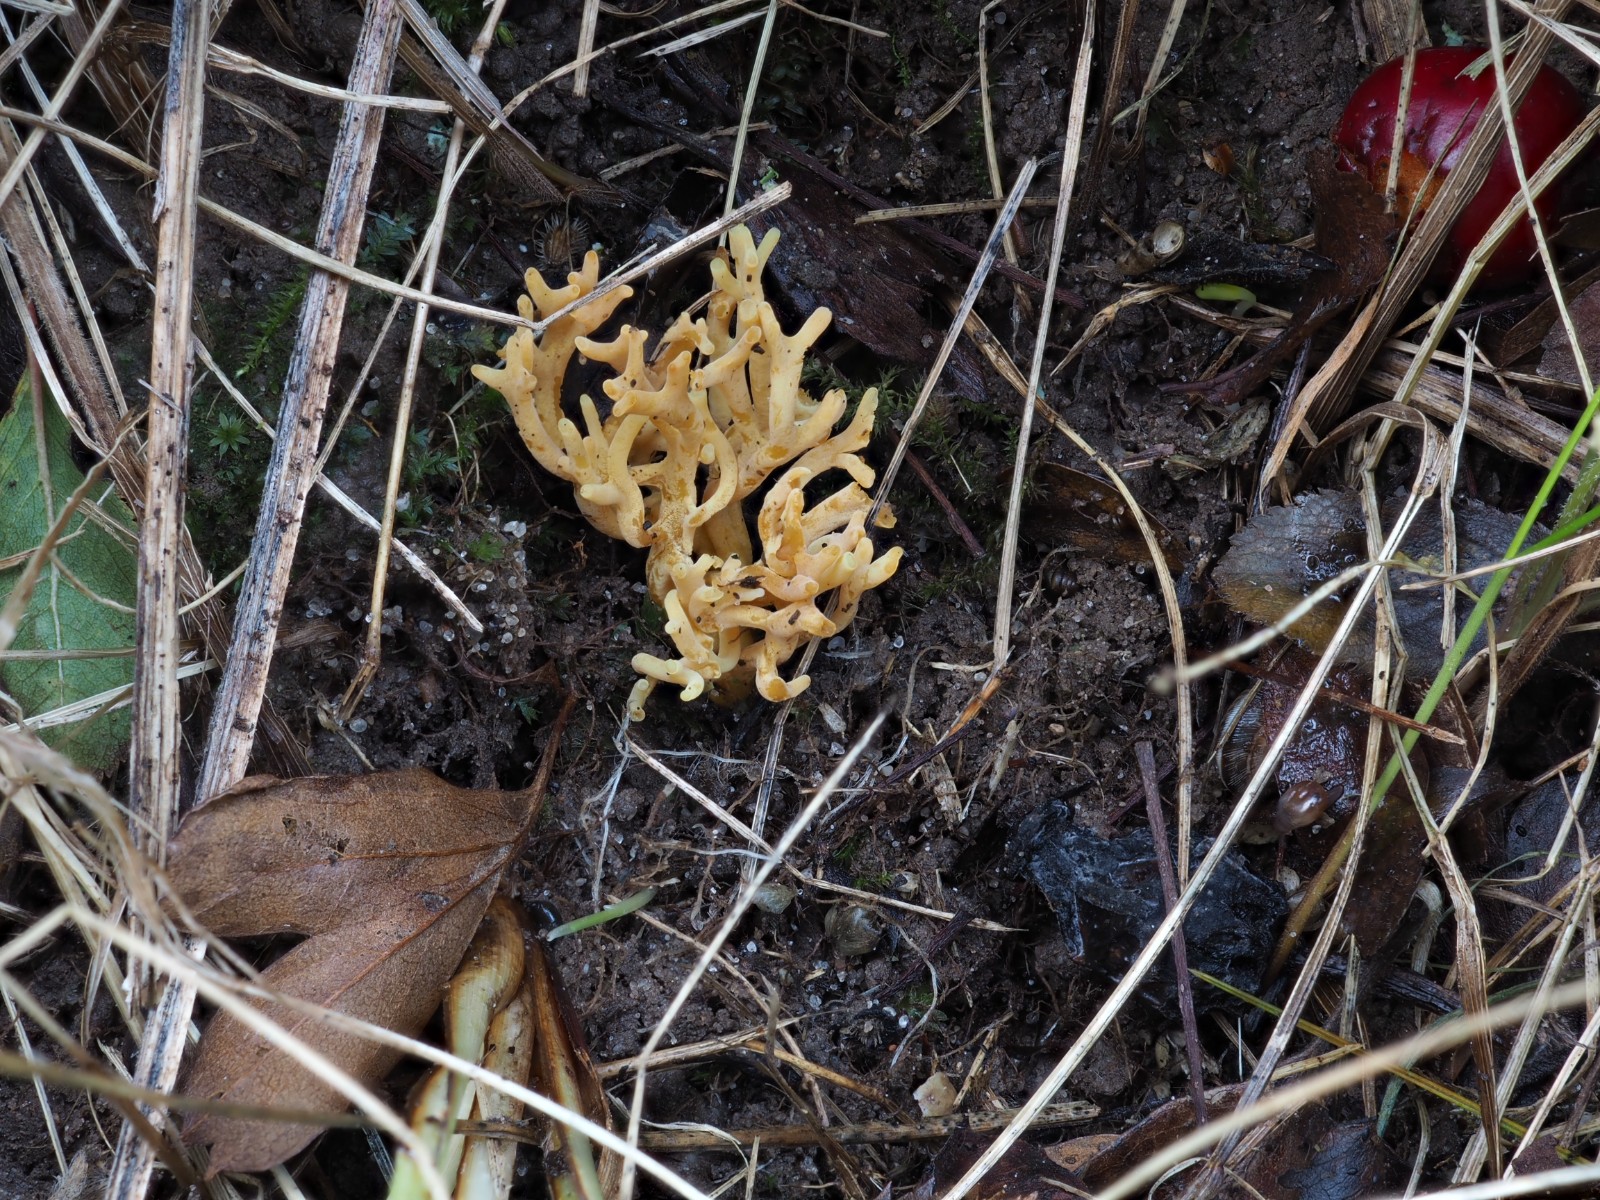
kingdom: Fungi
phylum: Basidiomycota
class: Agaricomycetes
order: Agaricales
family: Clavariaceae
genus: Clavulinopsis
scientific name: Clavulinopsis corniculata
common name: eng-køllesvamp
